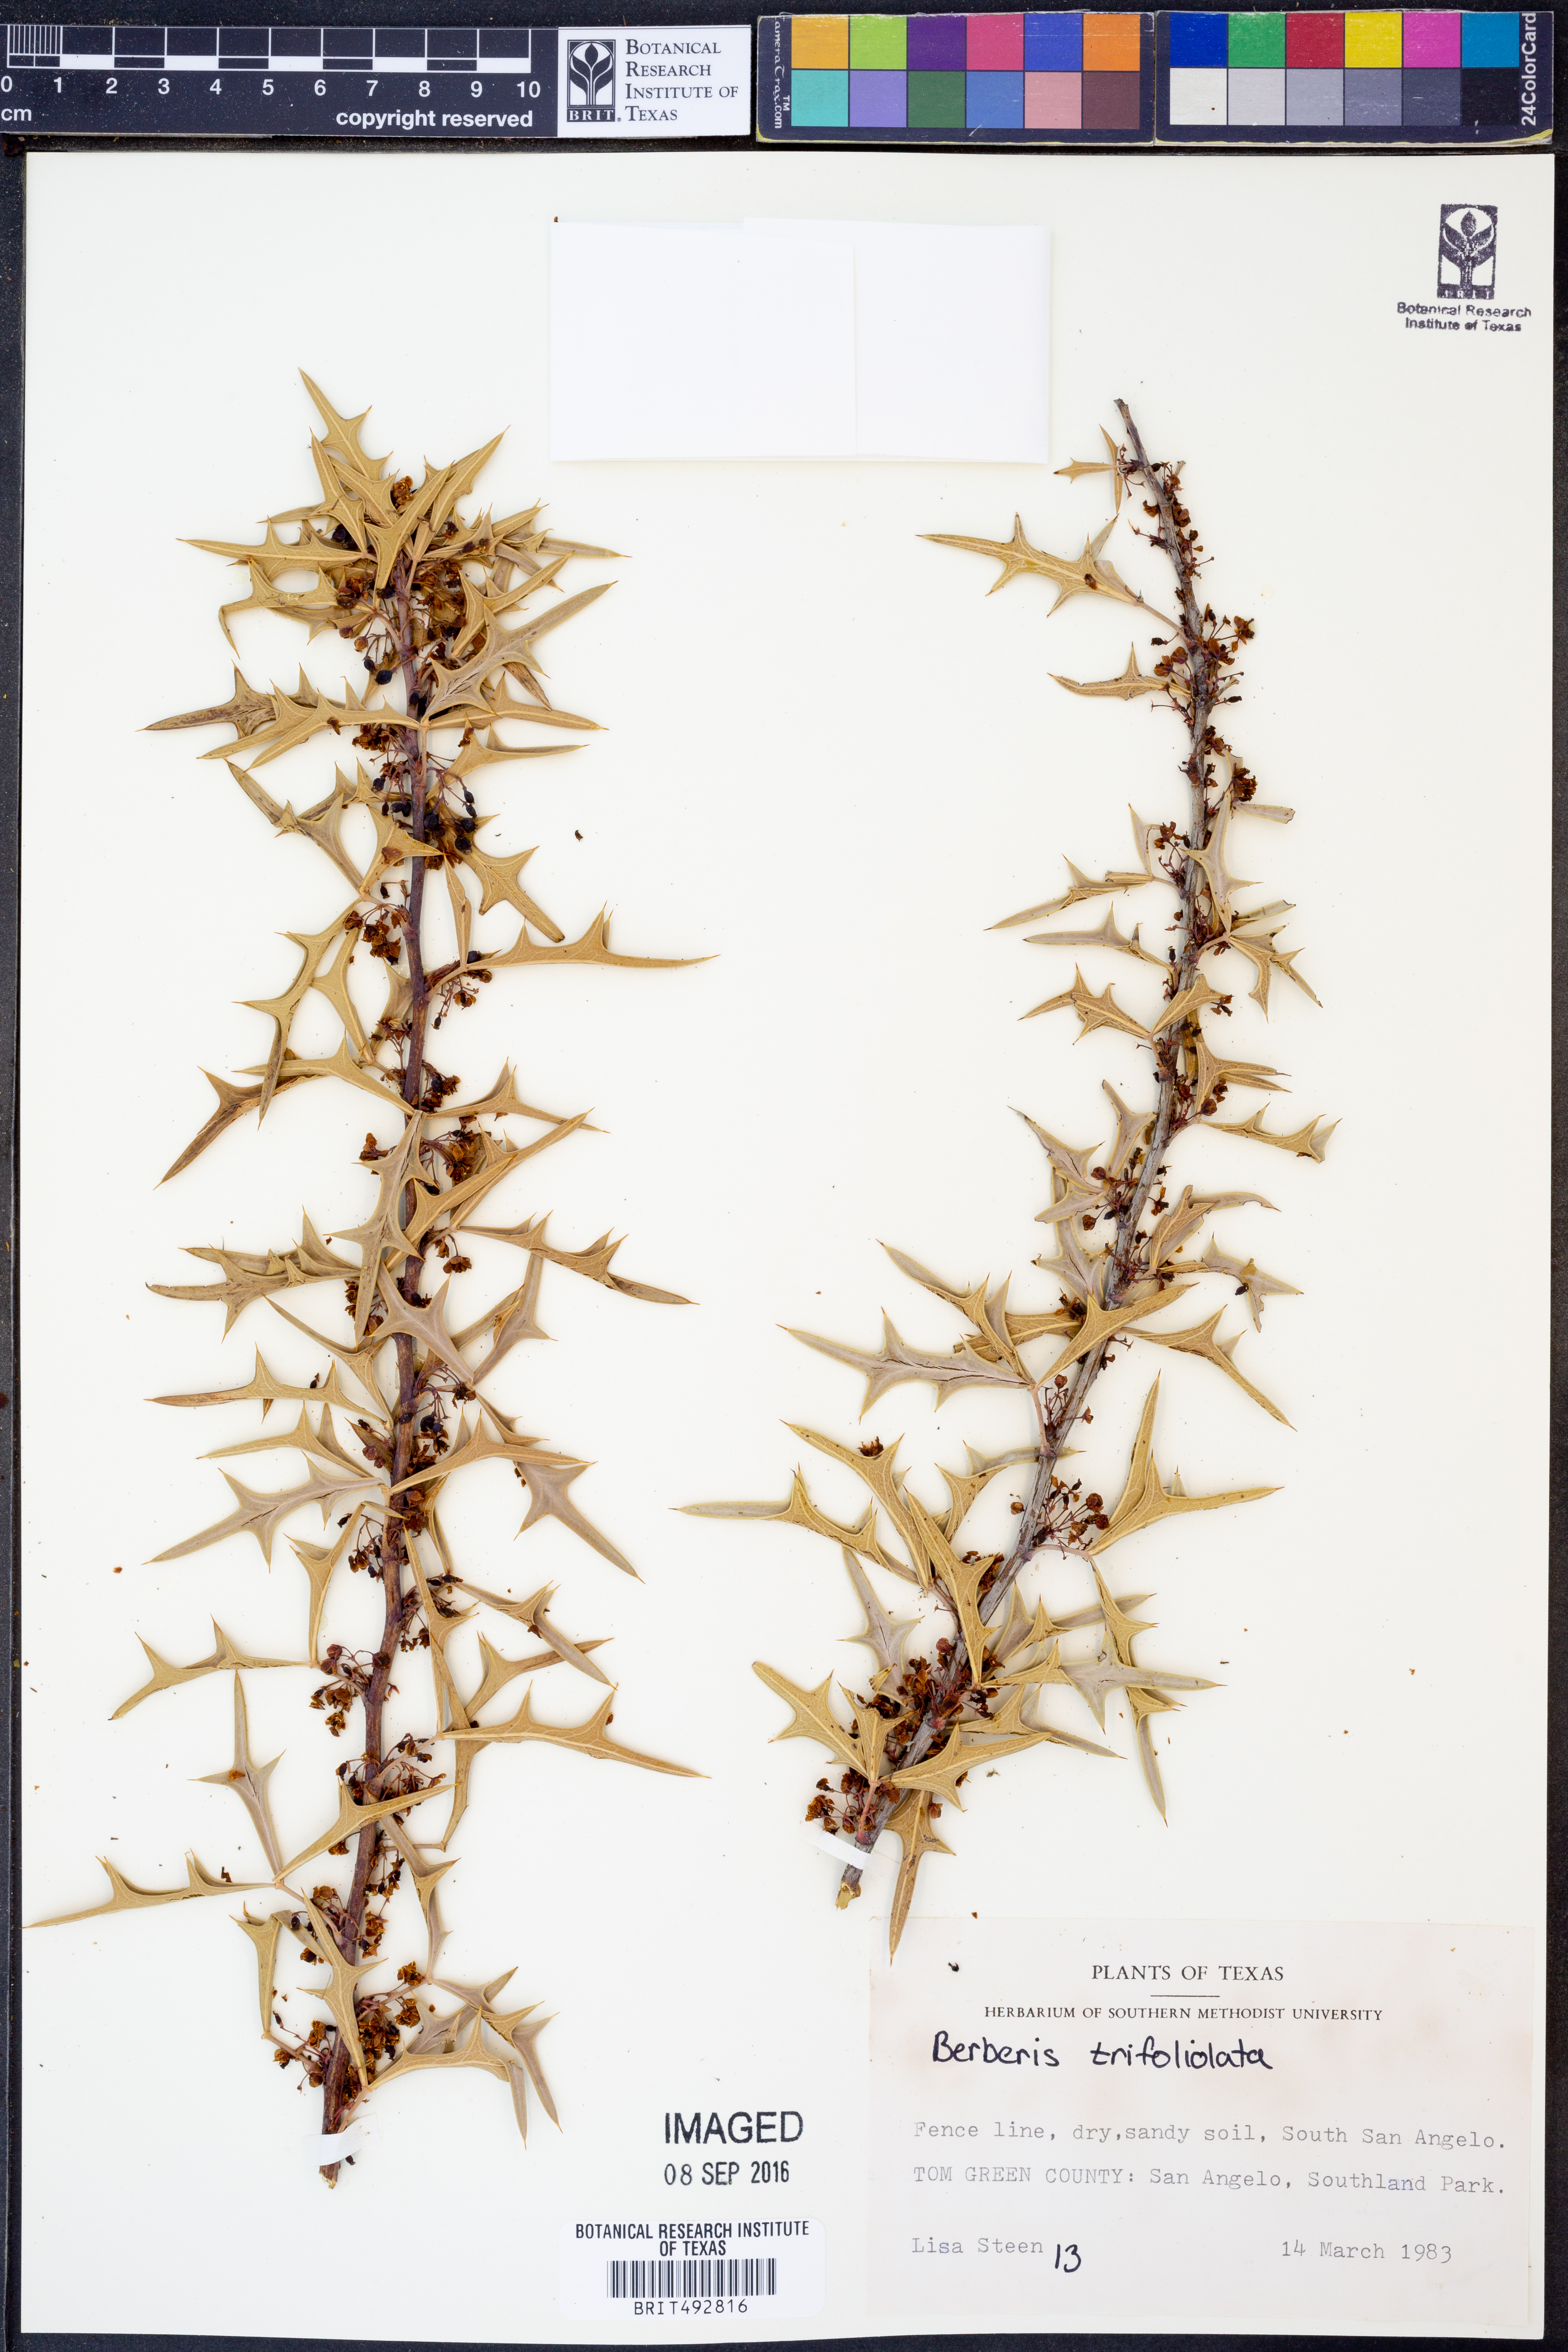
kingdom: Plantae
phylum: Tracheophyta
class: Magnoliopsida
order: Ranunculales
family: Berberidaceae
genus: Alloberberis
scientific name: Alloberberis trifoliolata
